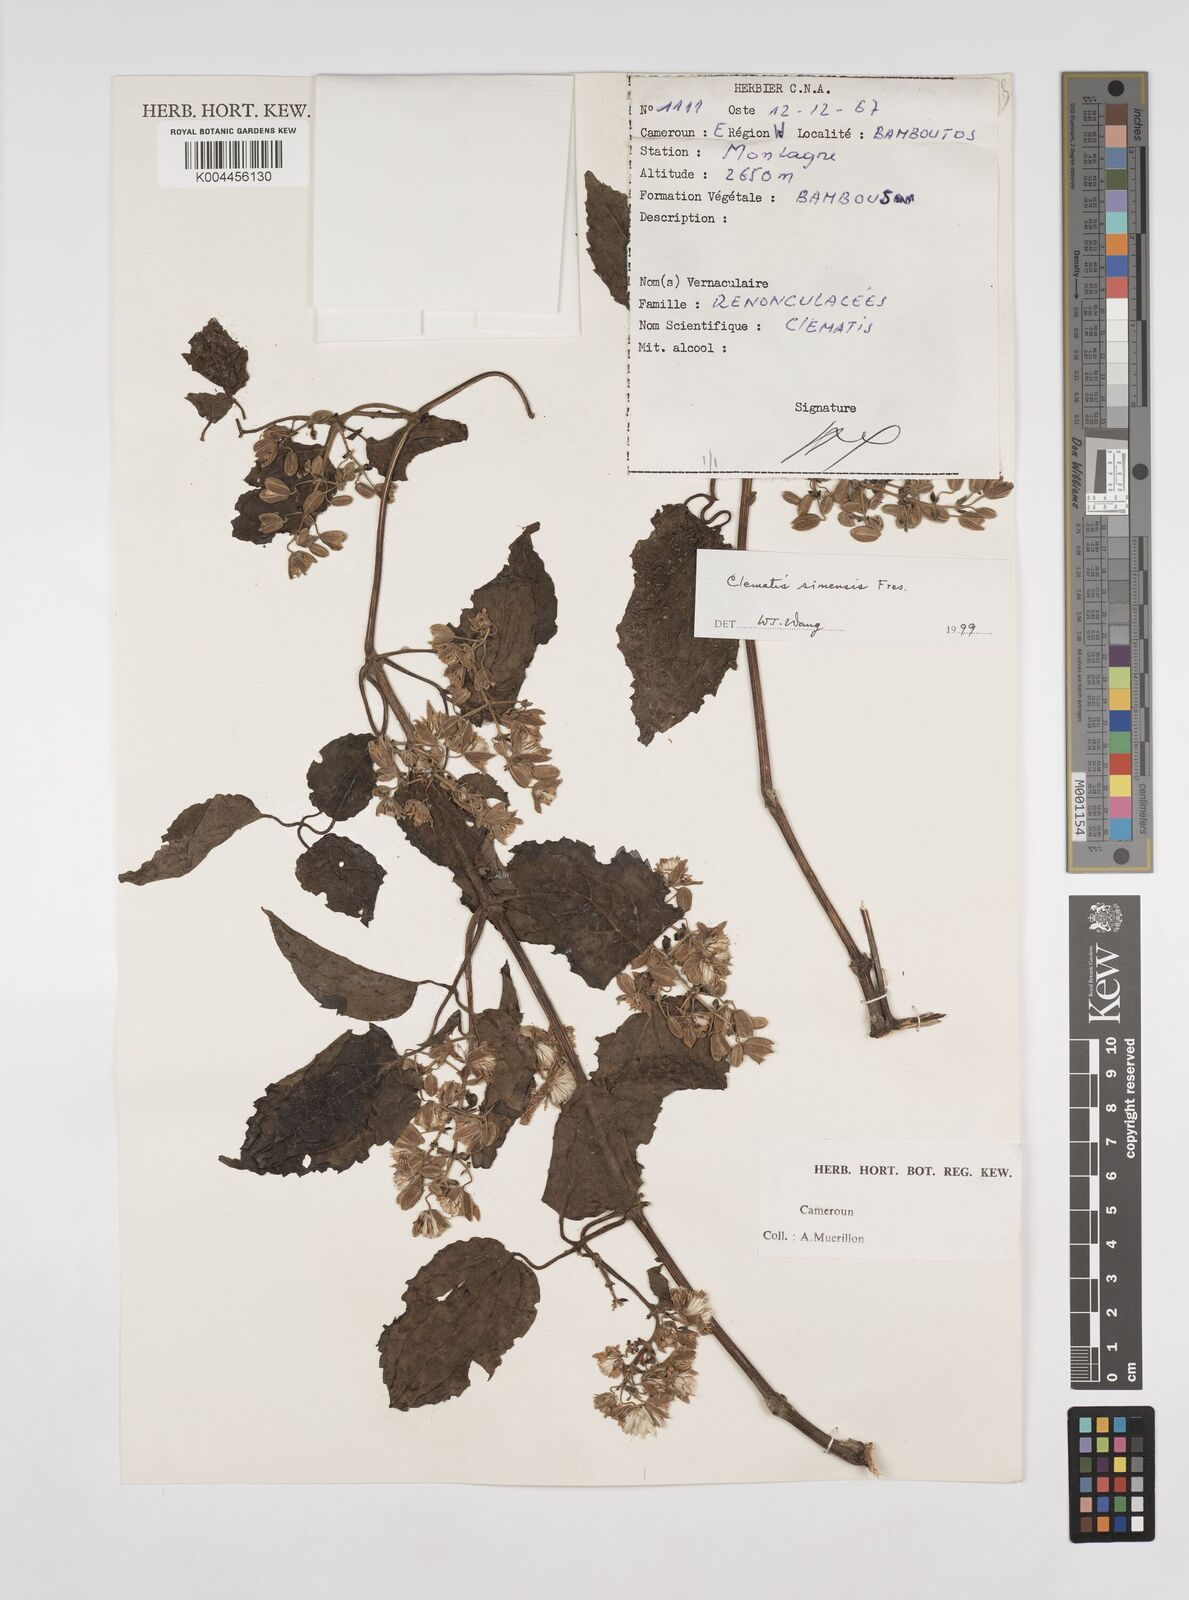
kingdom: Plantae
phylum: Tracheophyta
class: Magnoliopsida
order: Ranunculales
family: Ranunculaceae
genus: Clematis
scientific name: Clematis simensis
